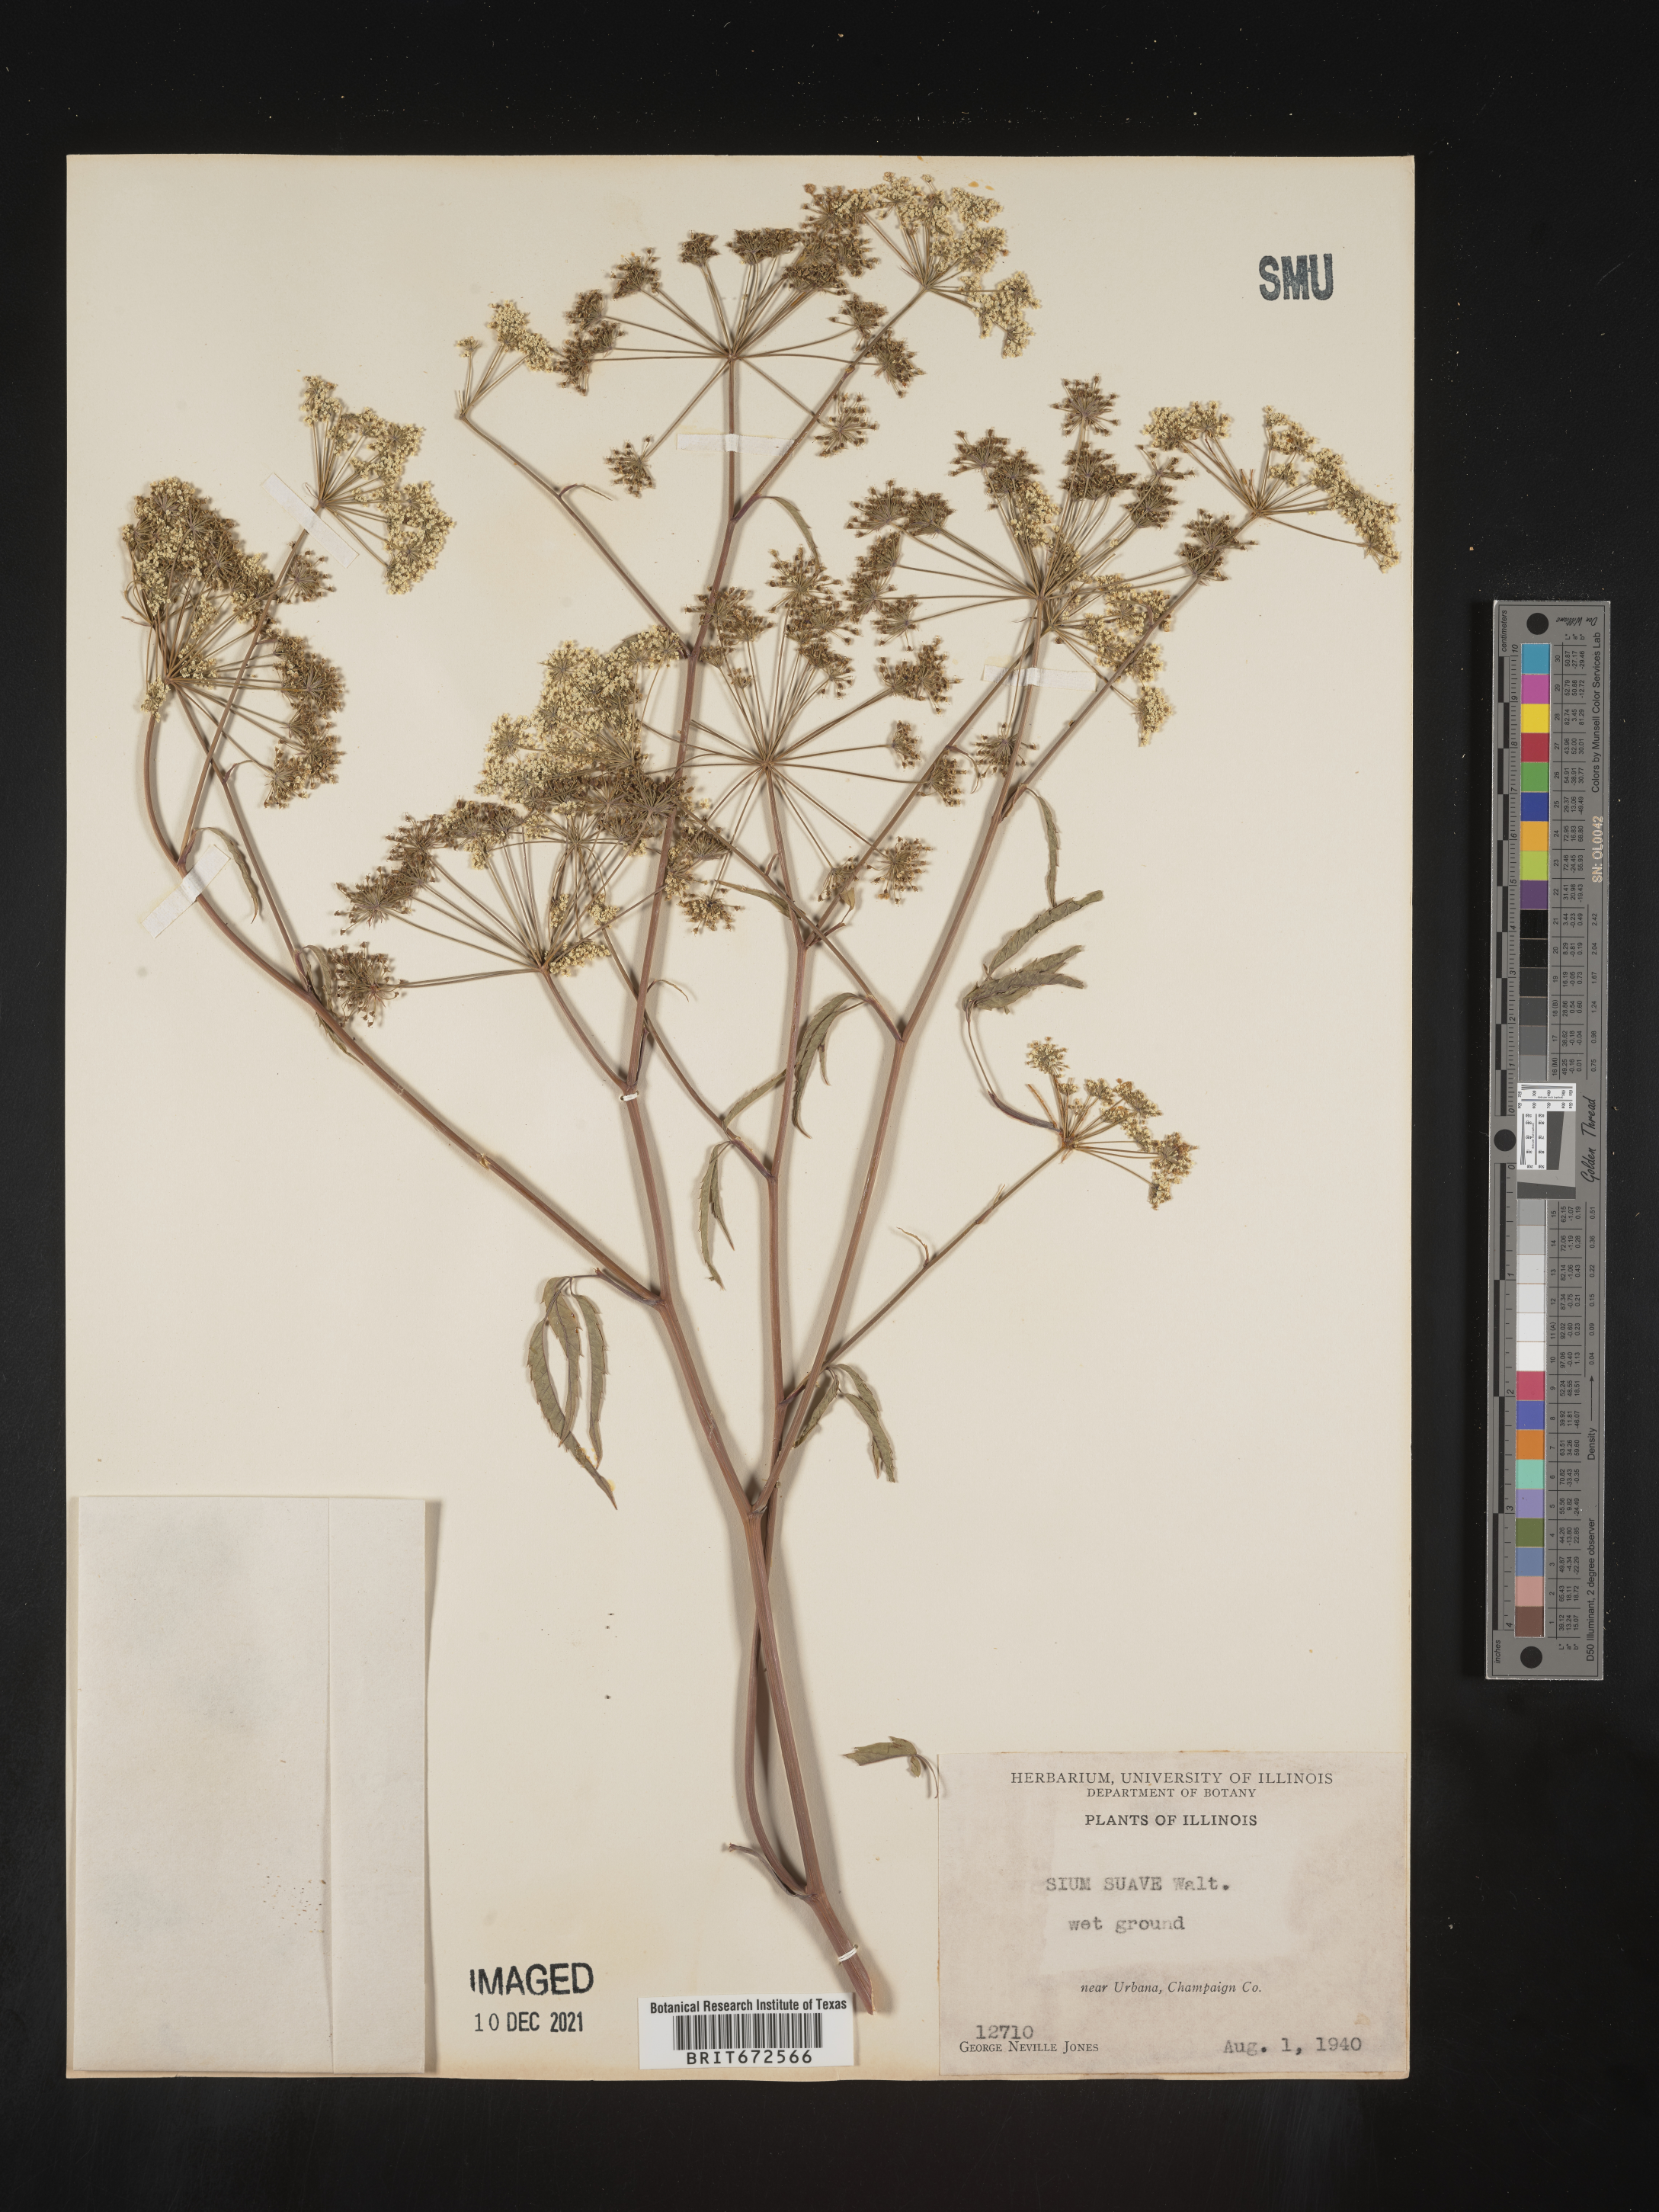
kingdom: Plantae
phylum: Tracheophyta
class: Magnoliopsida
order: Apiales
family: Apiaceae
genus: Sium
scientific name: Sium suave
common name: Hemlock water-parsnip
